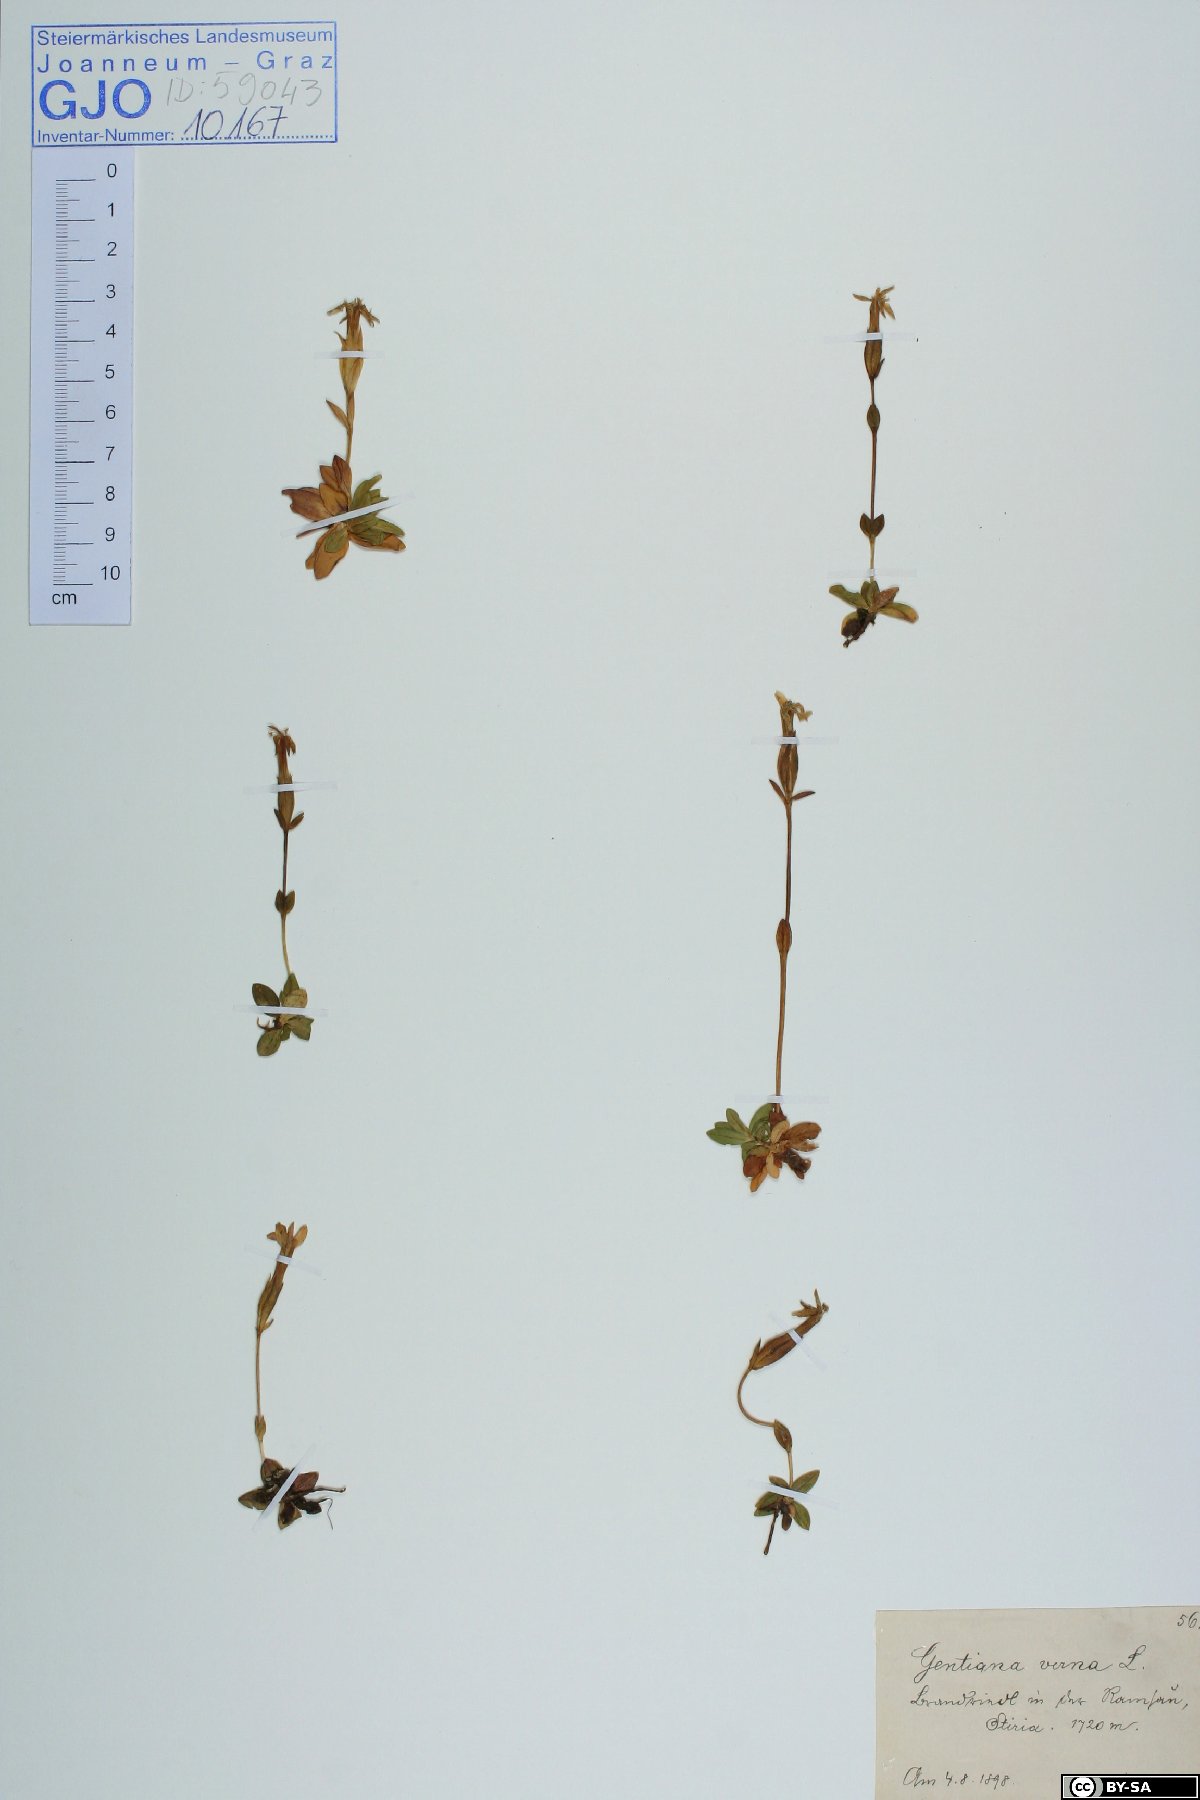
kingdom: Plantae
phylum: Tracheophyta
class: Magnoliopsida
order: Gentianales
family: Gentianaceae
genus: Gentiana
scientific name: Gentiana verna
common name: Spring gentian
